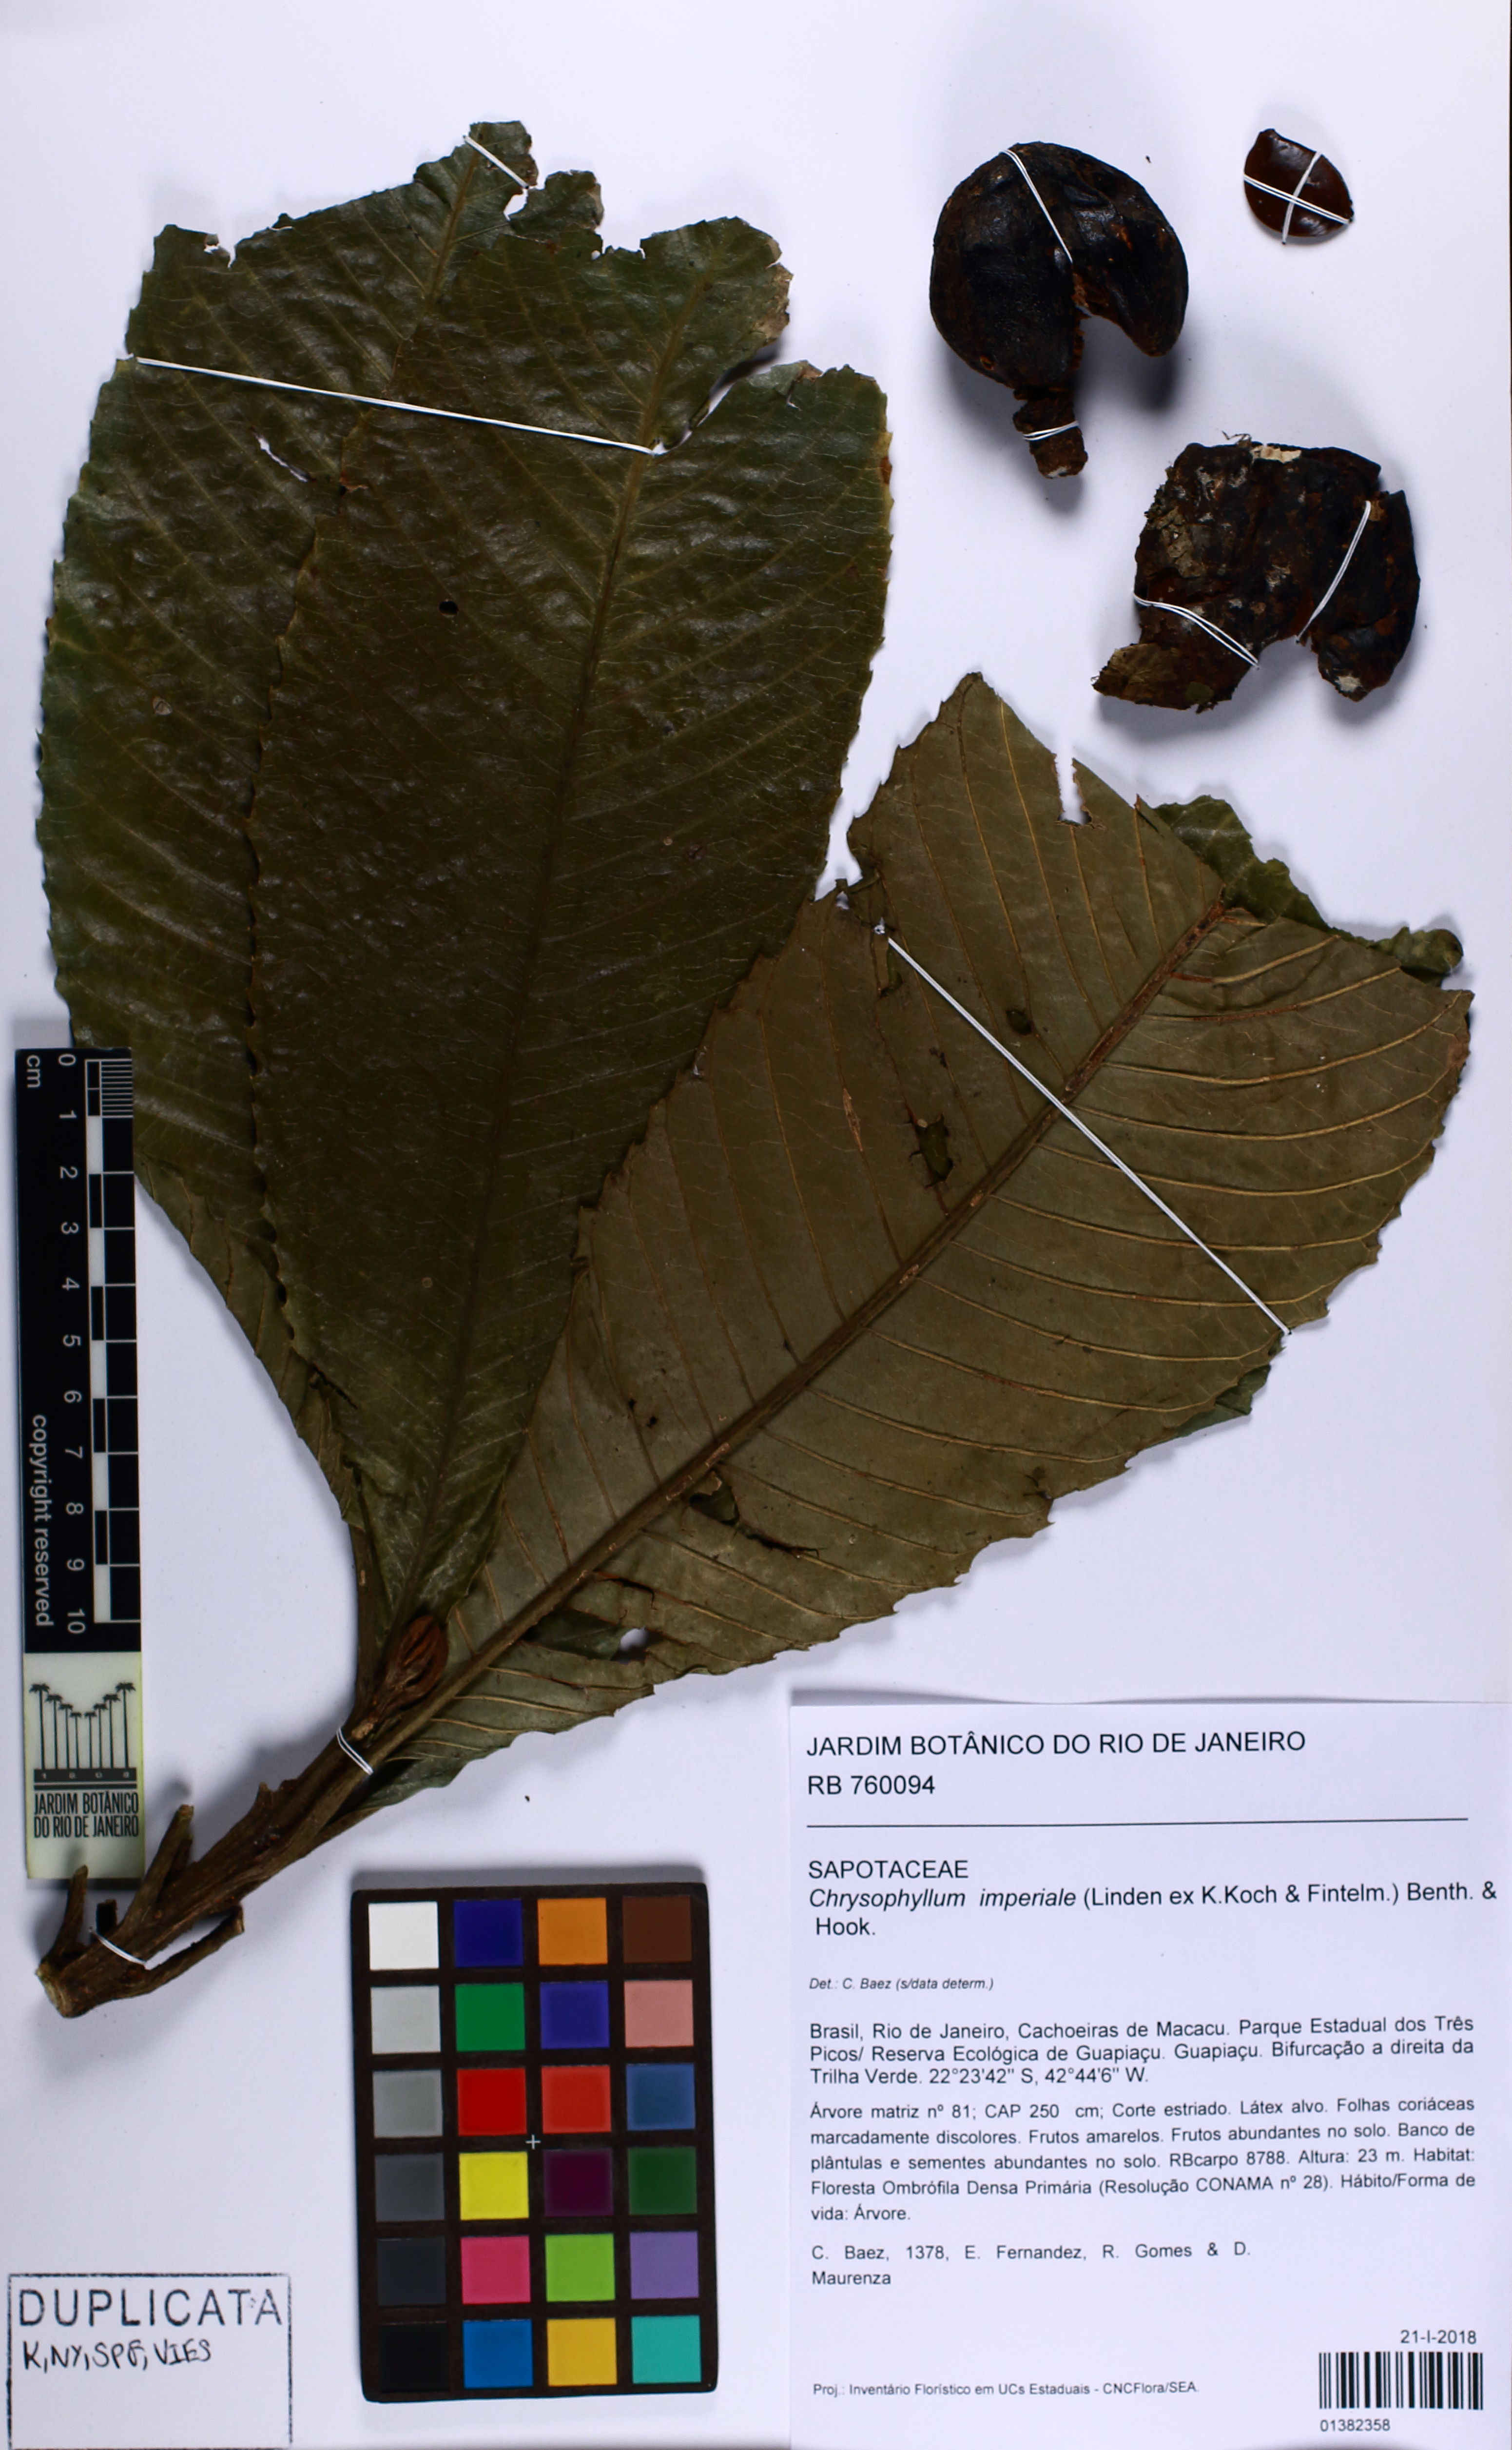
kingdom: Plantae
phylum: Tracheophyta
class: Magnoliopsida
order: Ericales
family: Sapotaceae
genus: Chrysophyllum
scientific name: Chrysophyllum imperiale
